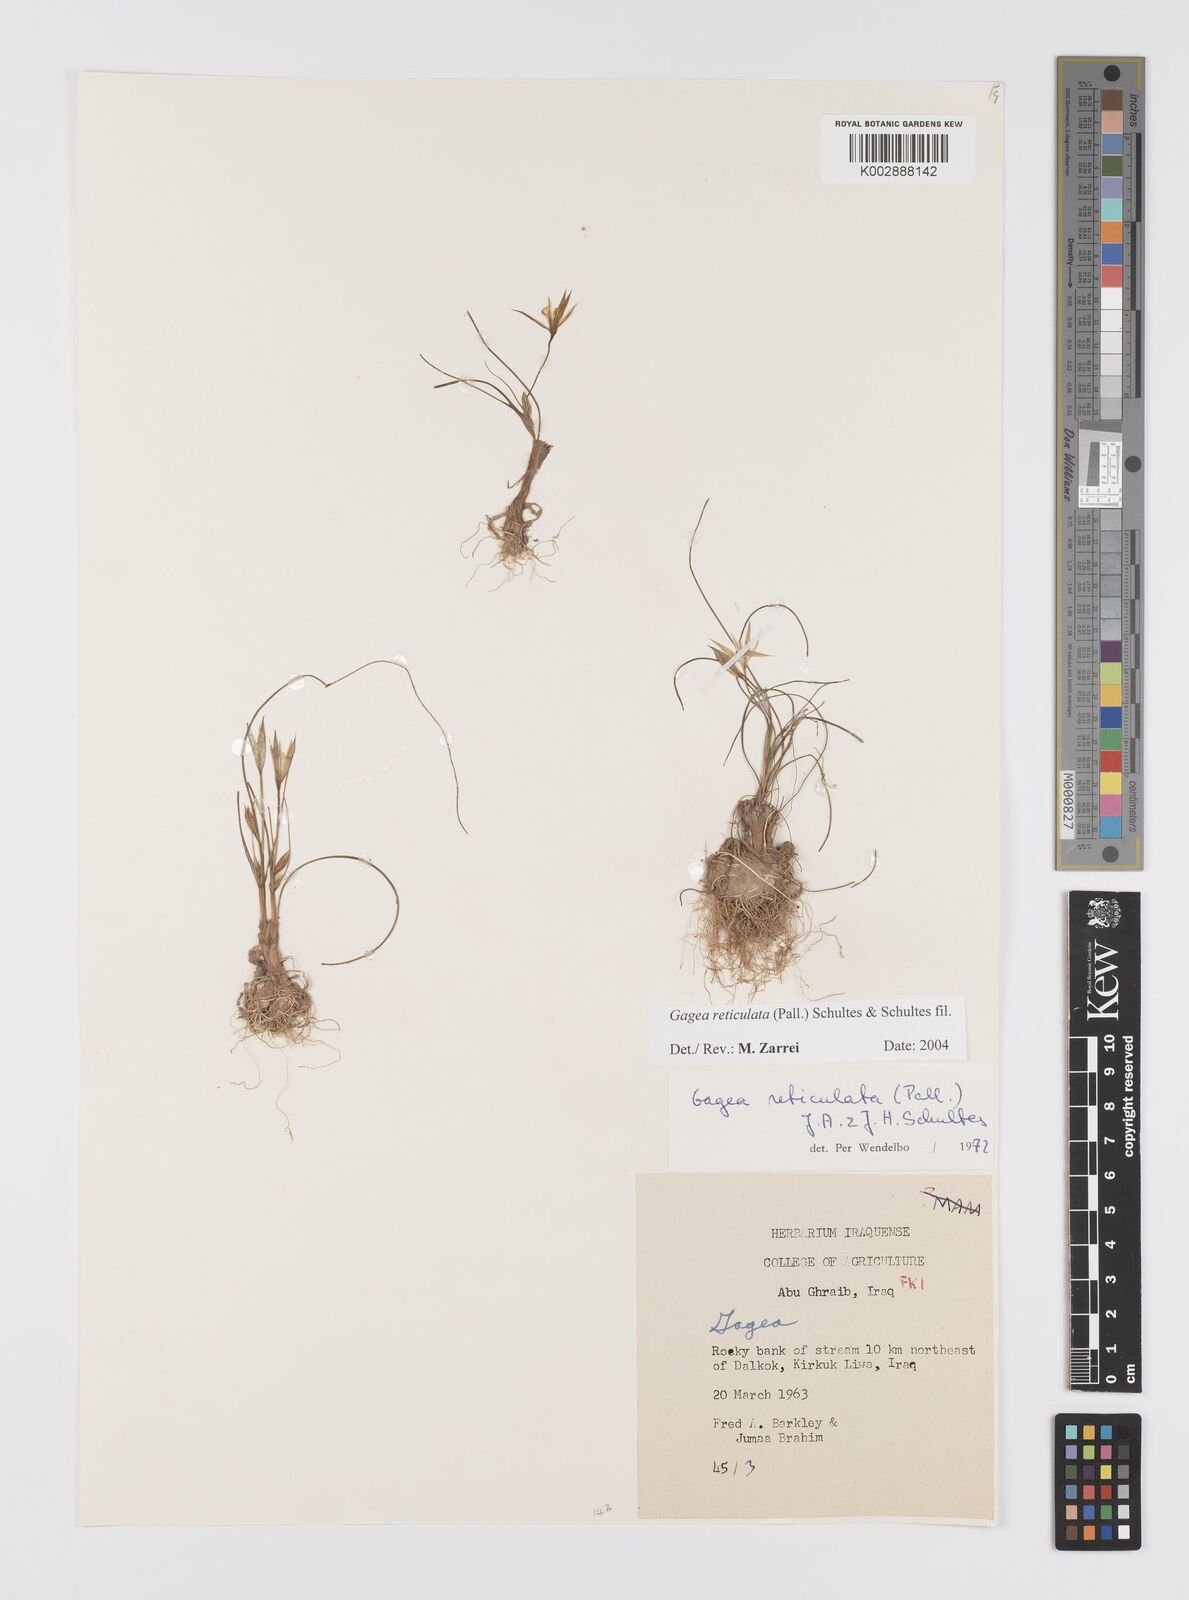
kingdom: Plantae
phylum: Tracheophyta
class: Liliopsida
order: Liliales
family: Liliaceae
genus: Gagea
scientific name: Gagea reticulata
